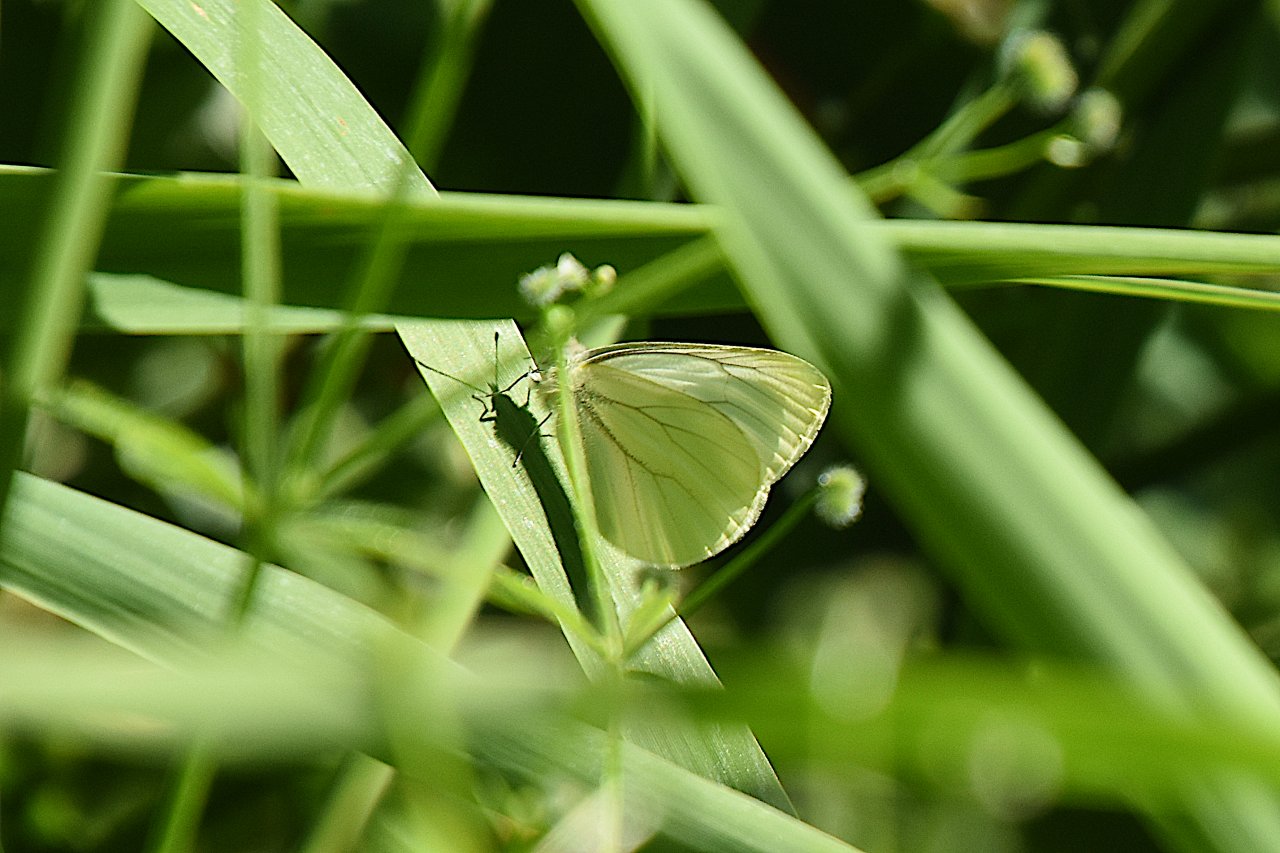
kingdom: Animalia
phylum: Arthropoda
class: Insecta
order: Lepidoptera
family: Pieridae
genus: Pieris
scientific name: Pieris marginalis
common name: Margined White
